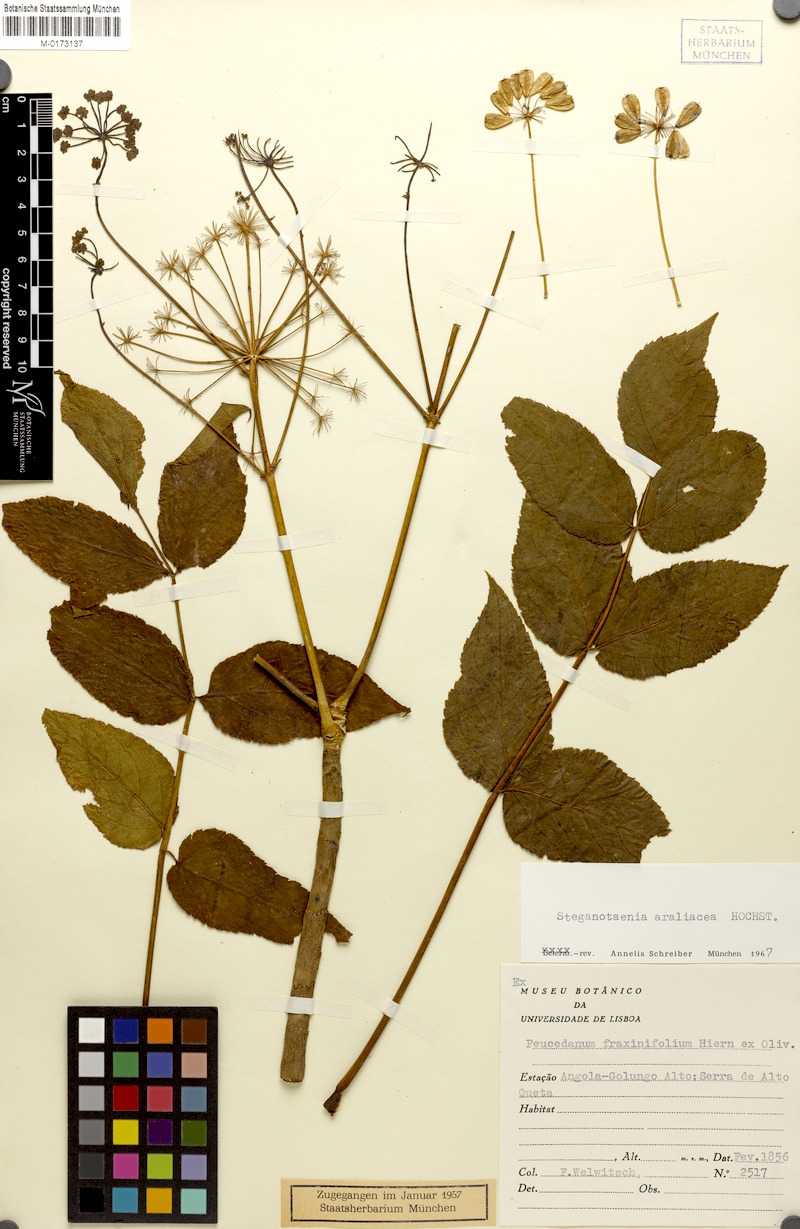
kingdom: Plantae
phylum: Tracheophyta
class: Magnoliopsida
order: Apiales
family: Apiaceae
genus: Steganotaenia
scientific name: Steganotaenia araliacea
